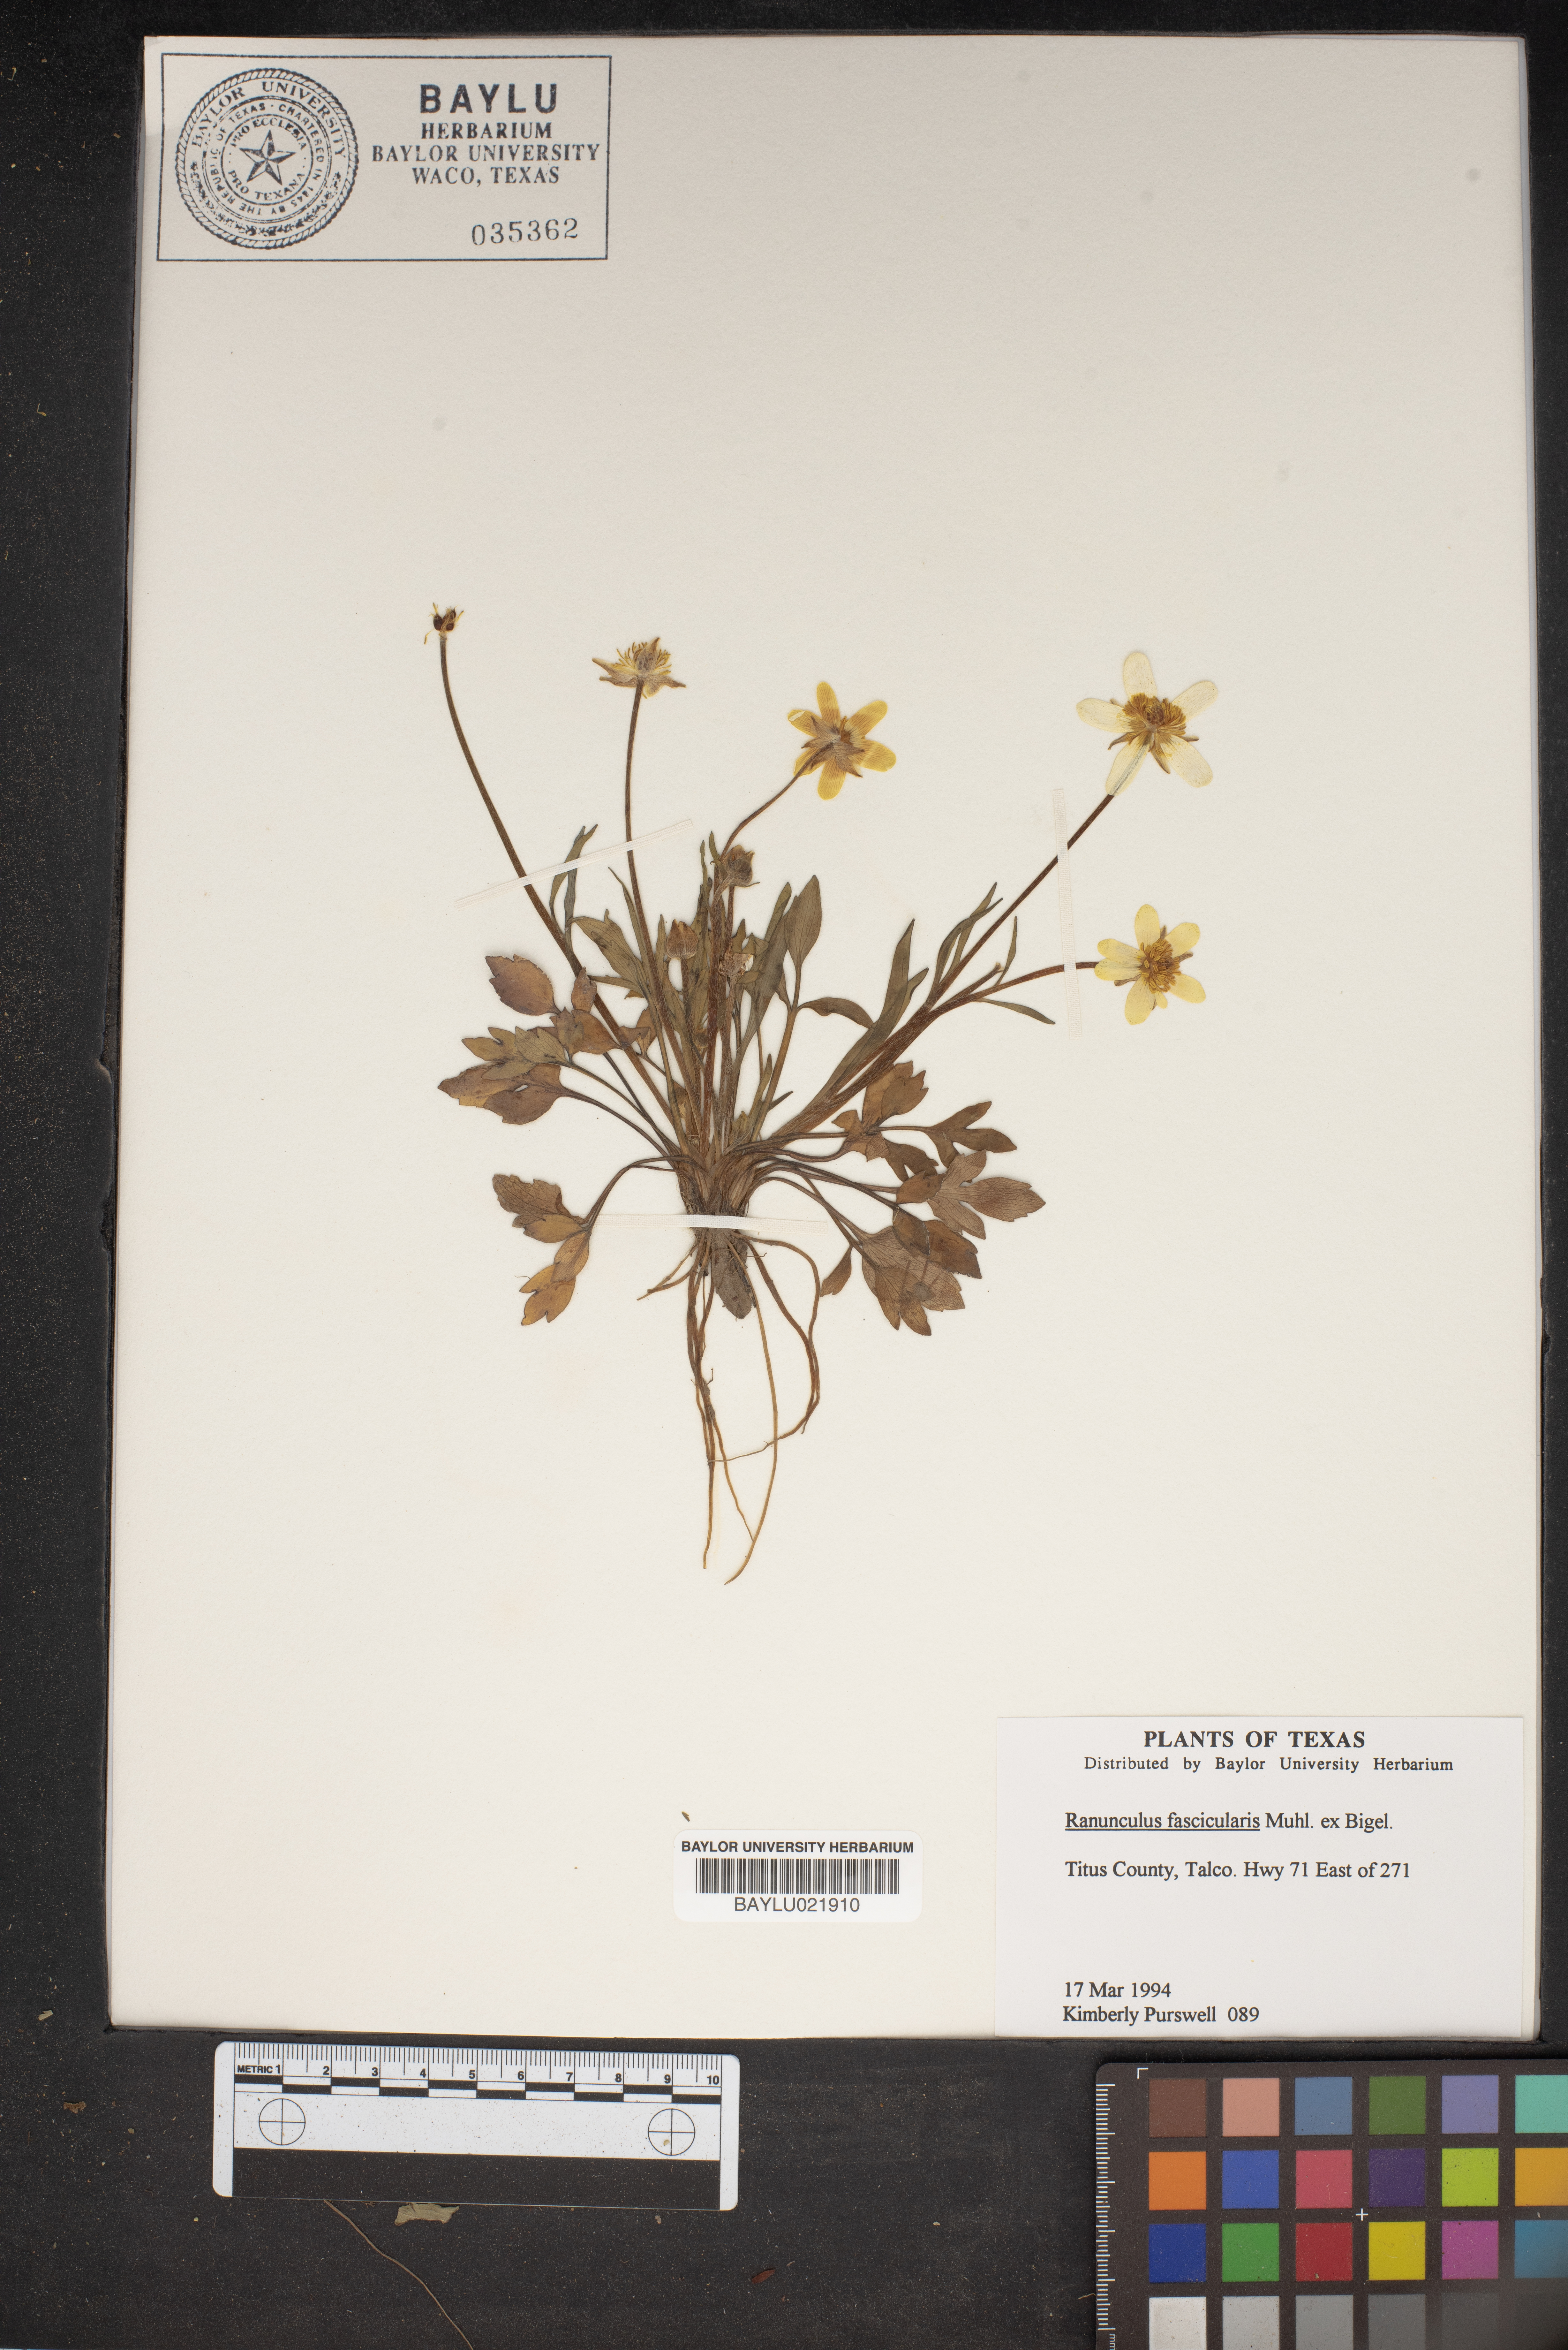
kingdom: Plantae
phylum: Tracheophyta
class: Magnoliopsida
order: Ranunculales
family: Ranunculaceae
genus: Ranunculus
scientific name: Ranunculus fascicularis
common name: Early buttercup
